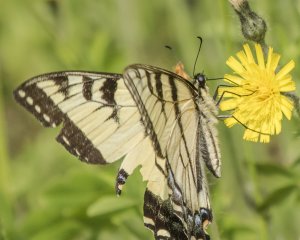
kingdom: Animalia
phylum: Arthropoda
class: Insecta
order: Lepidoptera
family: Papilionidae
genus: Pterourus
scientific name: Pterourus canadensis
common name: Canadian Tiger Swallowtail
